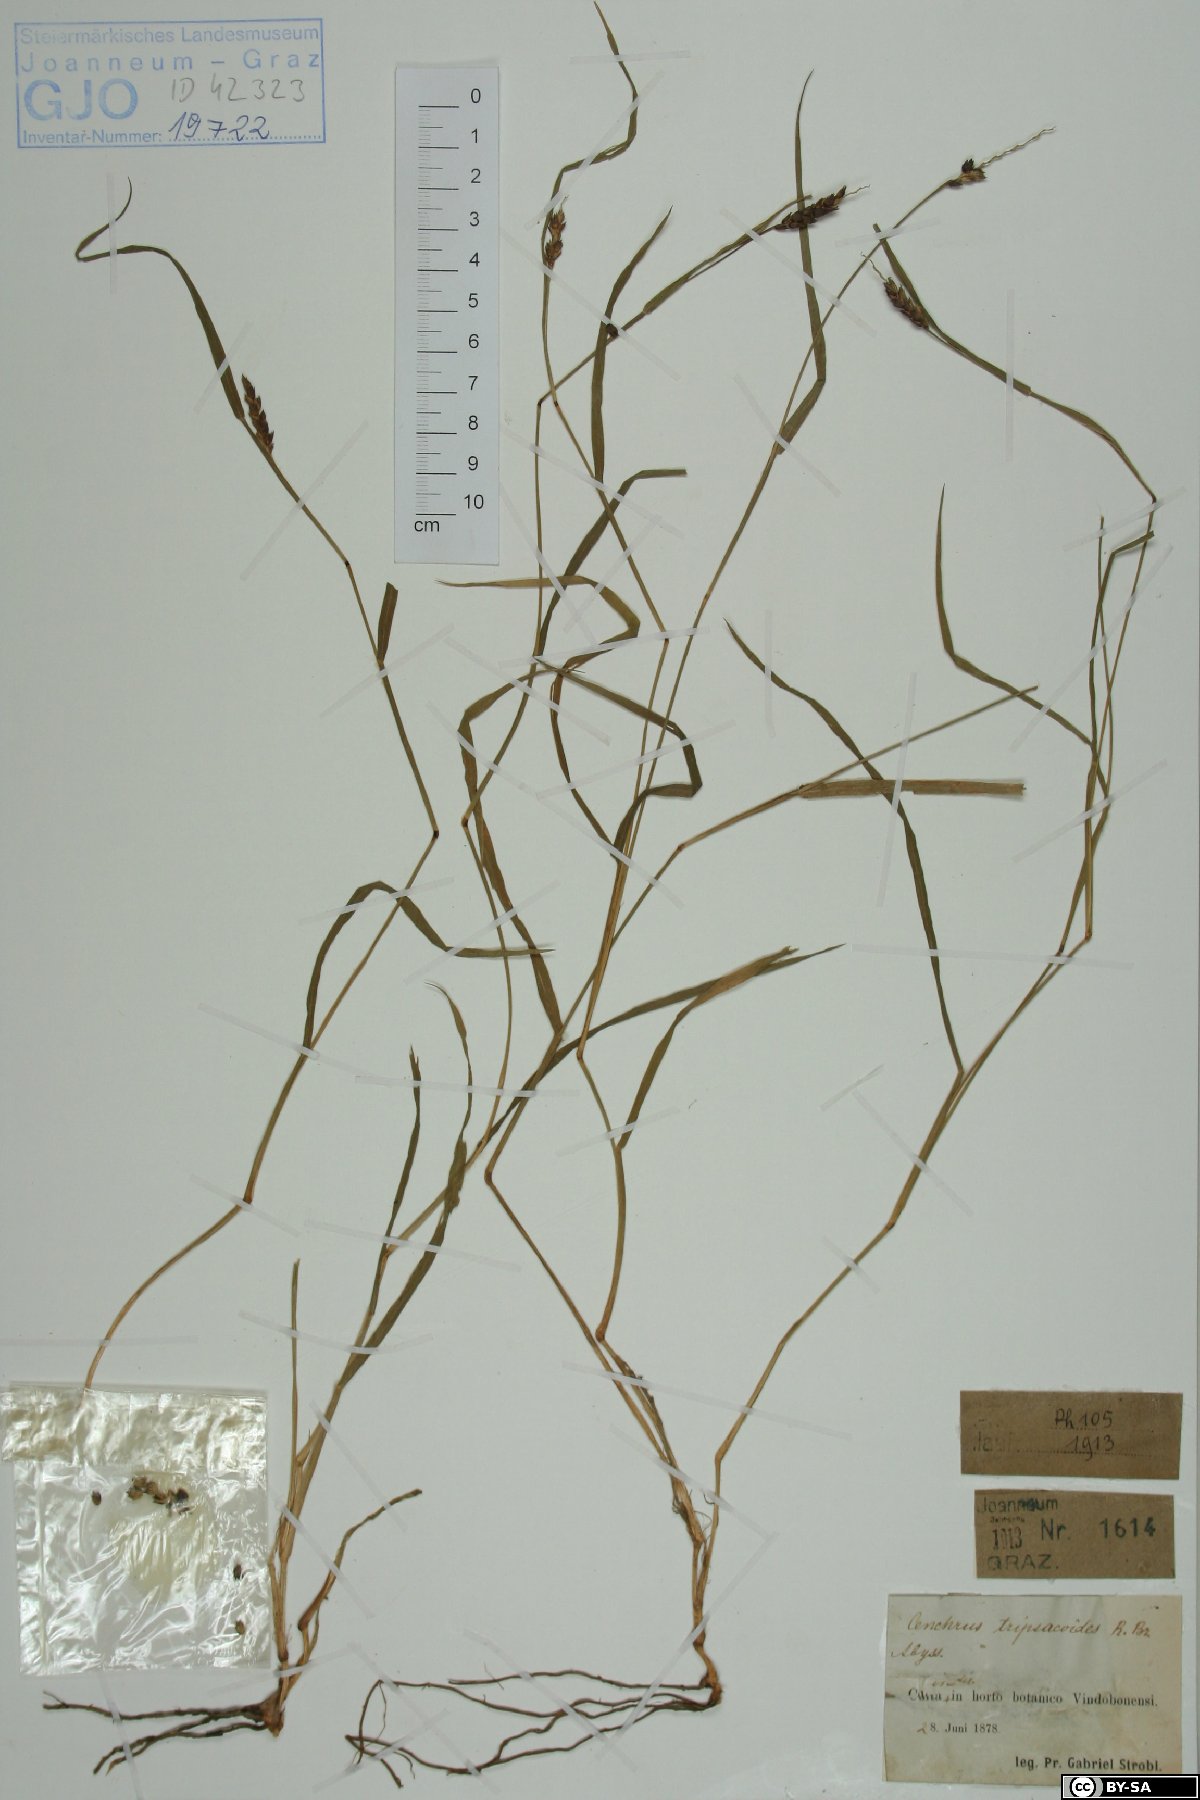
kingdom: Plantae
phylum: Tracheophyta
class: Liliopsida
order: Poales
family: Poaceae
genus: Cenchrus
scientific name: Cenchrus setigerus
